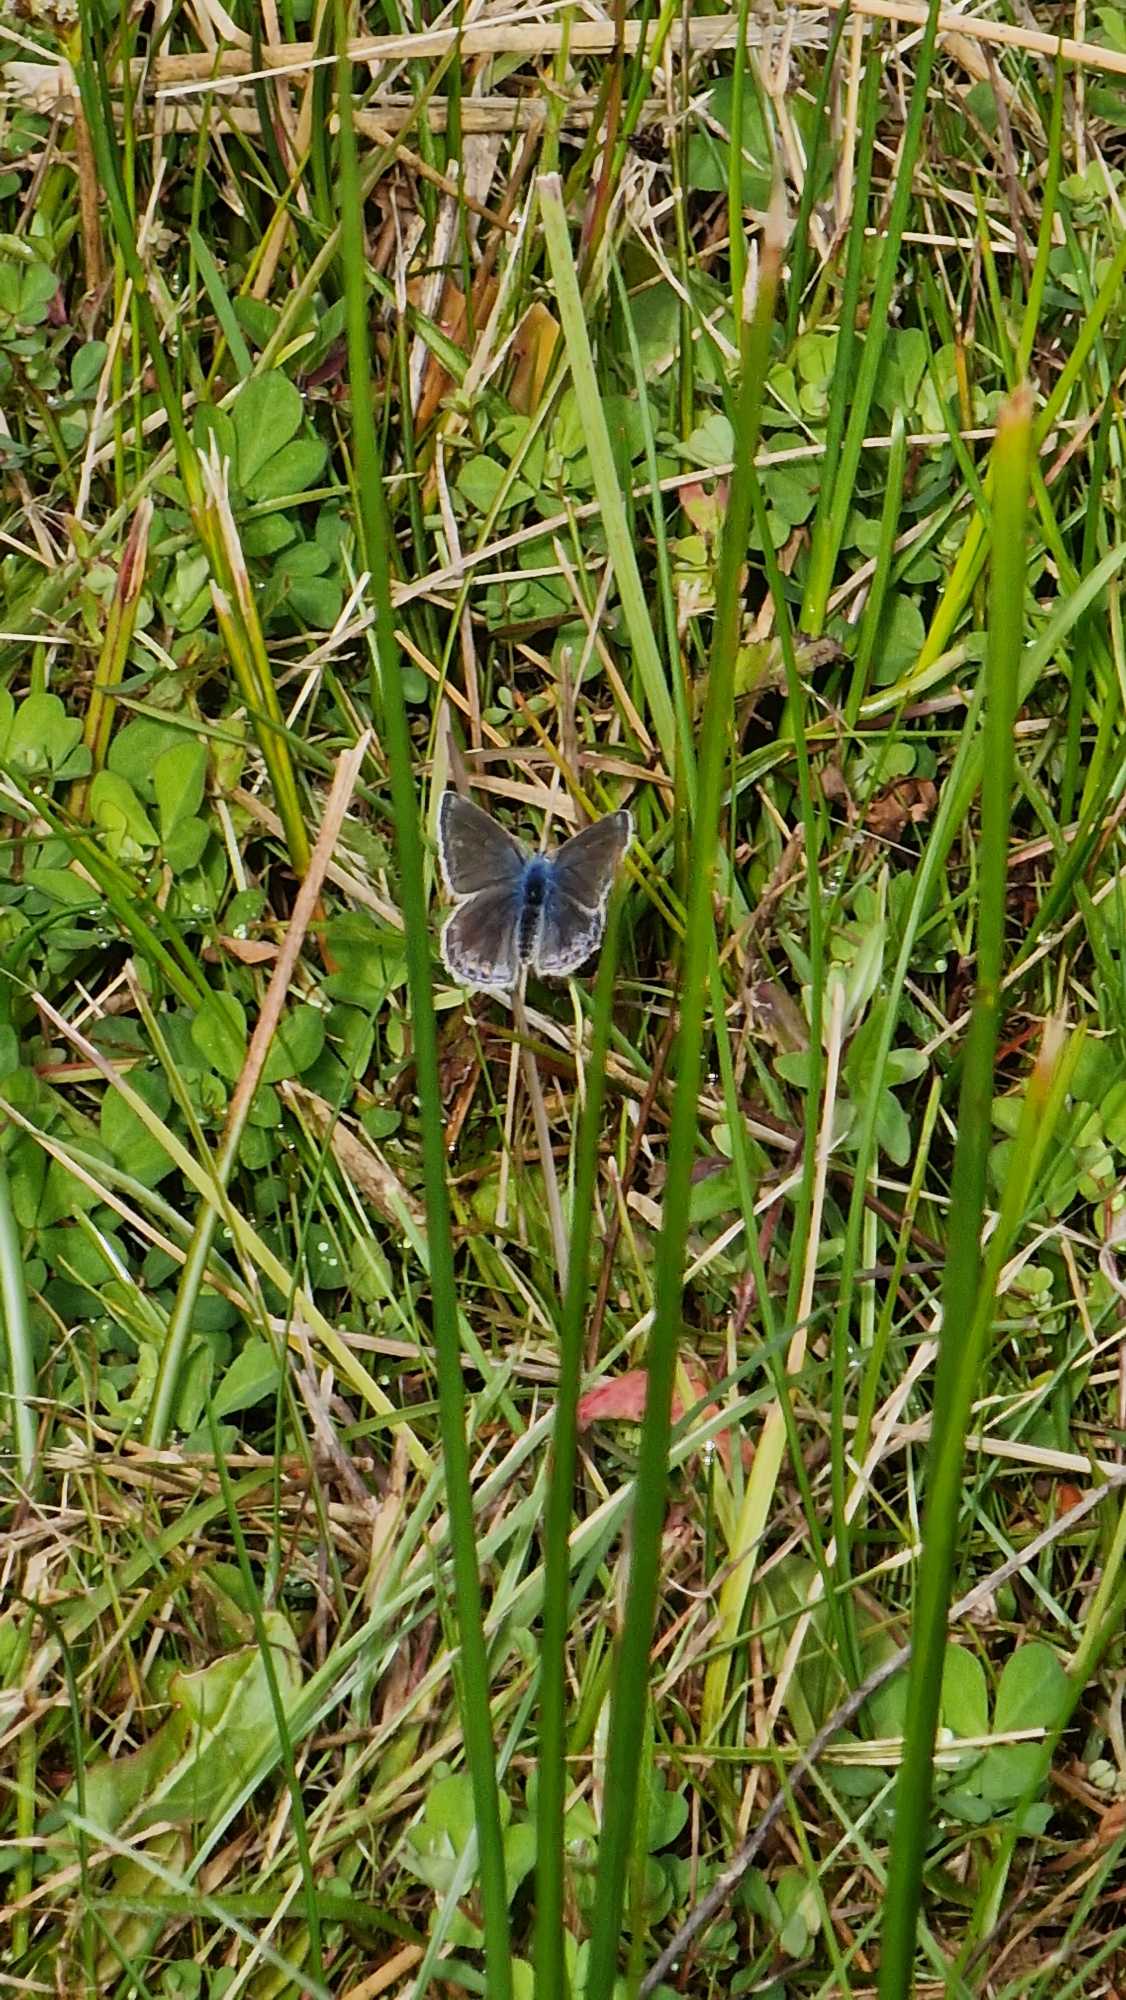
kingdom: Animalia
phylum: Arthropoda
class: Insecta
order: Lepidoptera
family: Lycaenidae
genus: Polyommatus
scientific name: Polyommatus icarus
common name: Almindelig blåfugl
